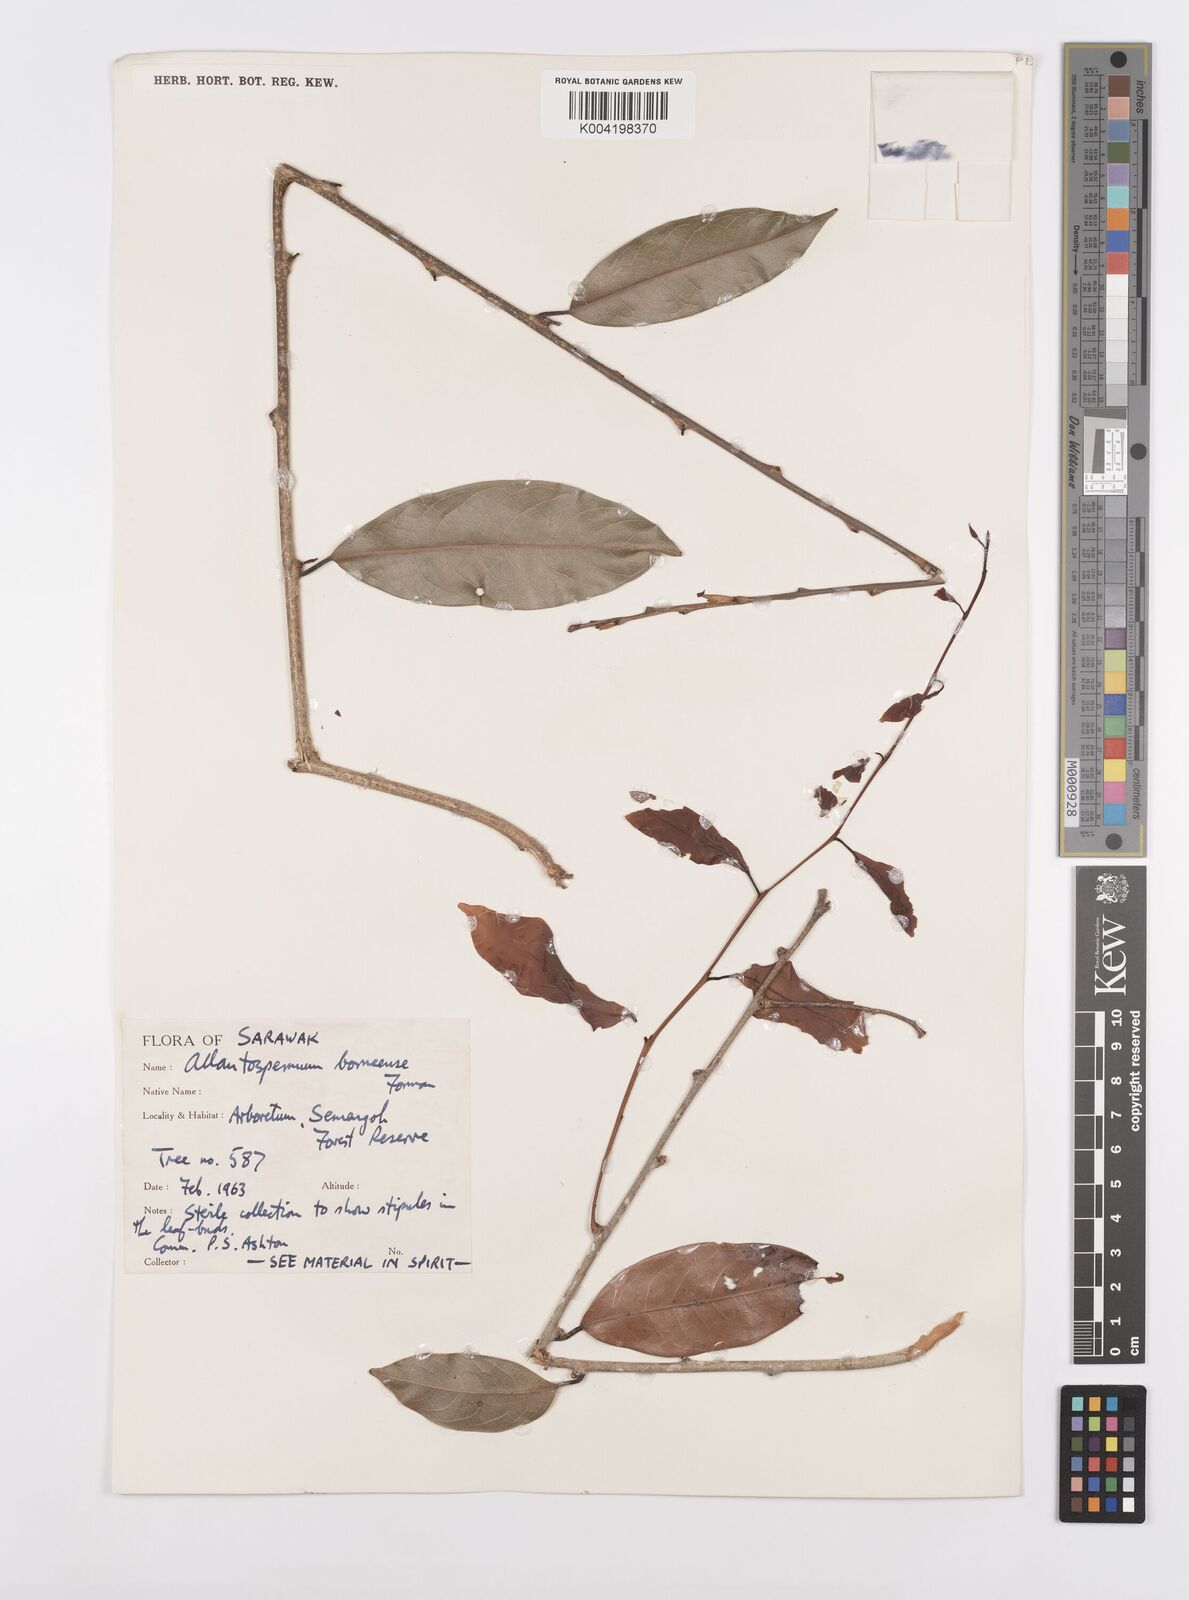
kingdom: Plantae
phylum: Tracheophyta
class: Magnoliopsida
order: Malpighiales
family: Ixonanthaceae
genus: Allantospermum
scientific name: Allantospermum borneense
